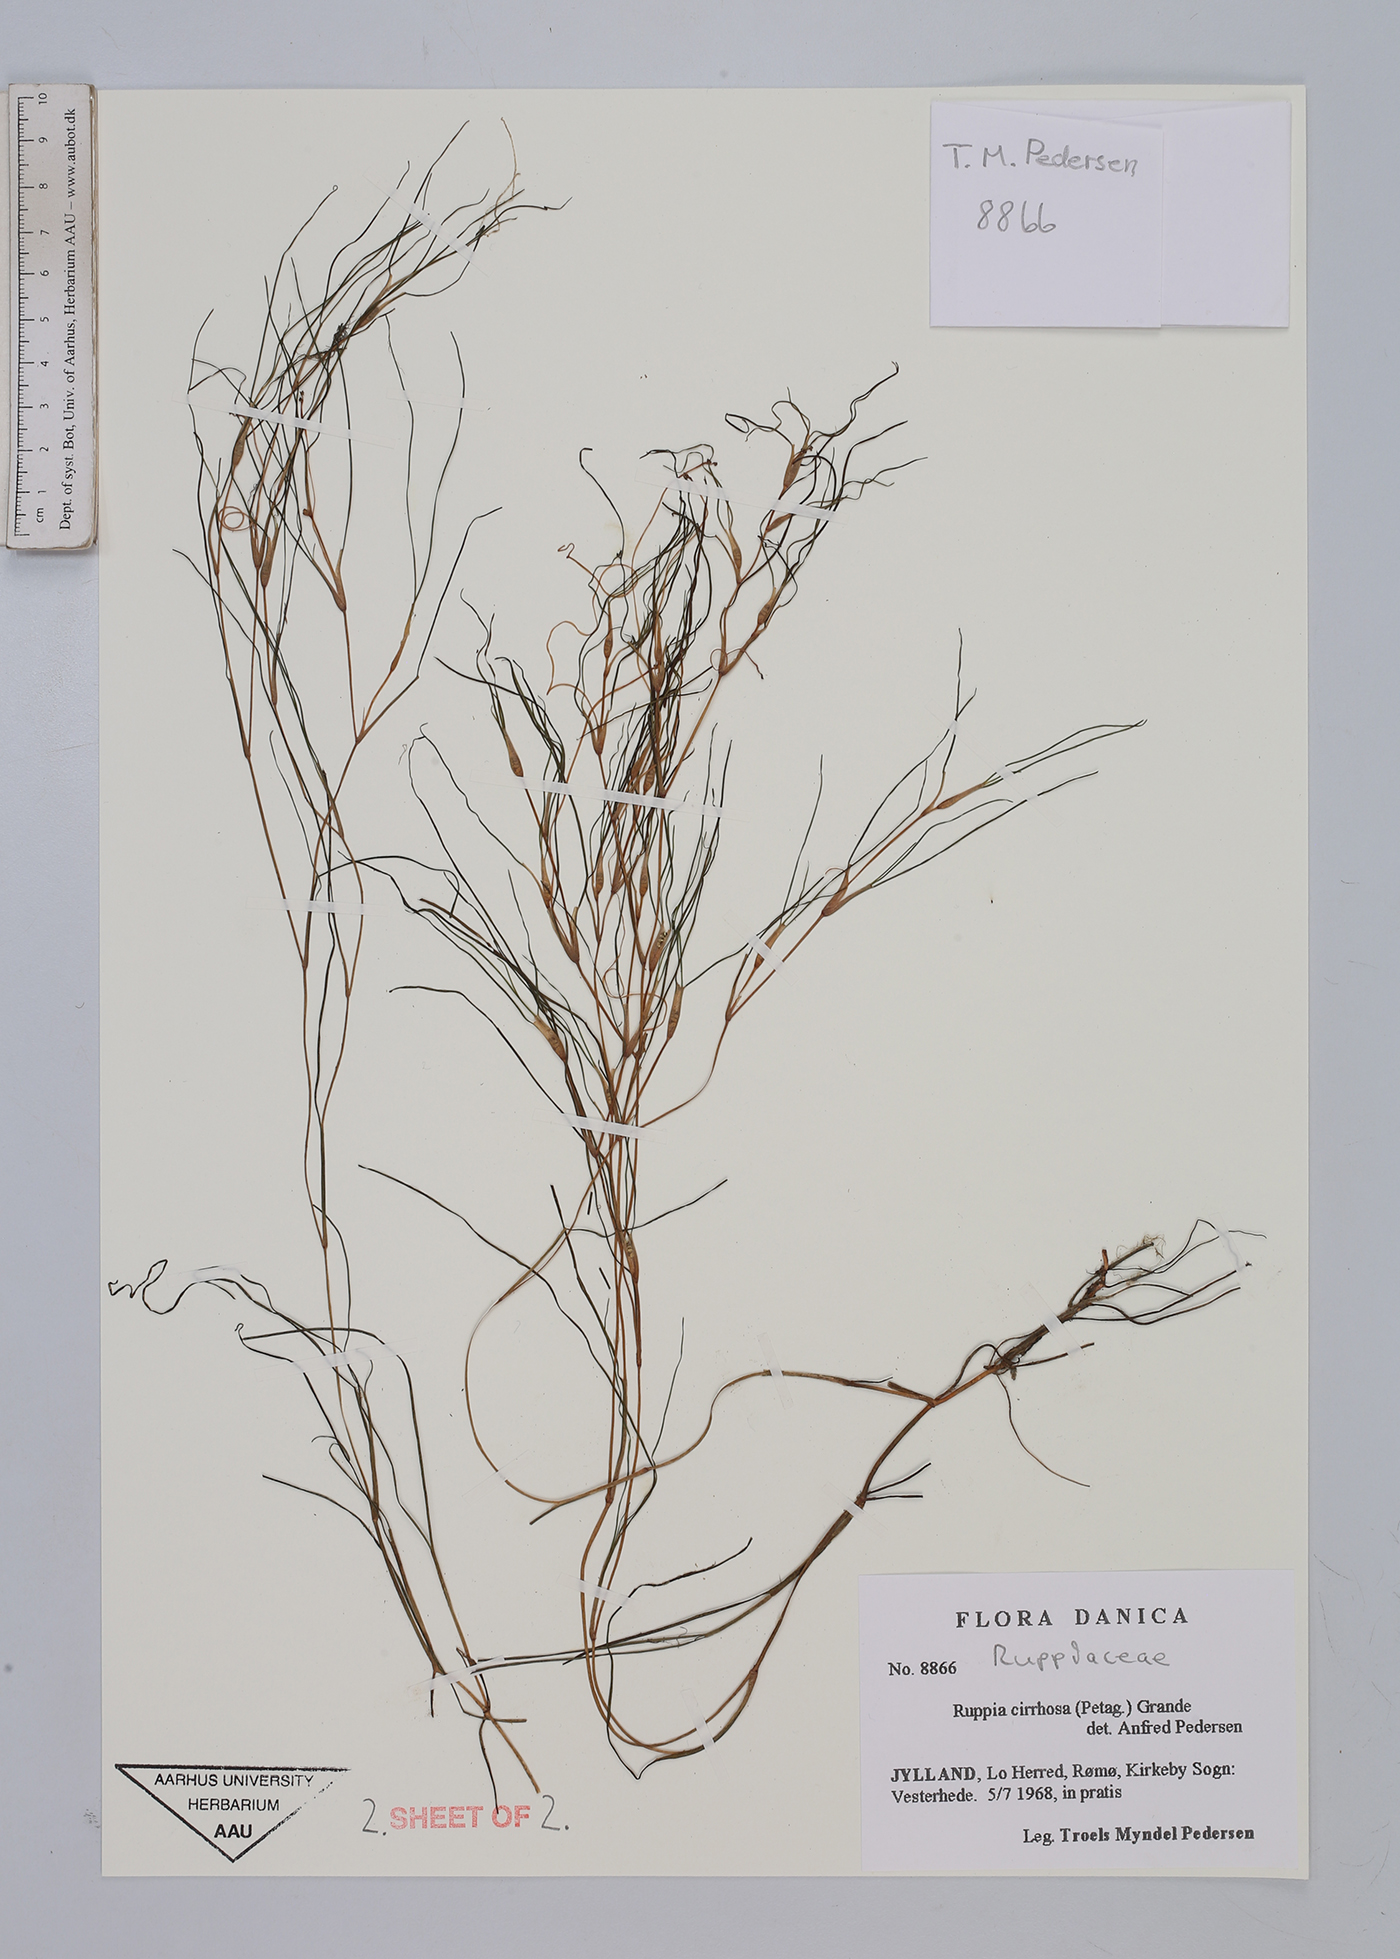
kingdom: Plantae
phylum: Tracheophyta
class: Liliopsida
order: Alismatales
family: Ruppiaceae
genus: Ruppia
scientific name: Ruppia cirrhosa
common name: Spiral tasselweed
